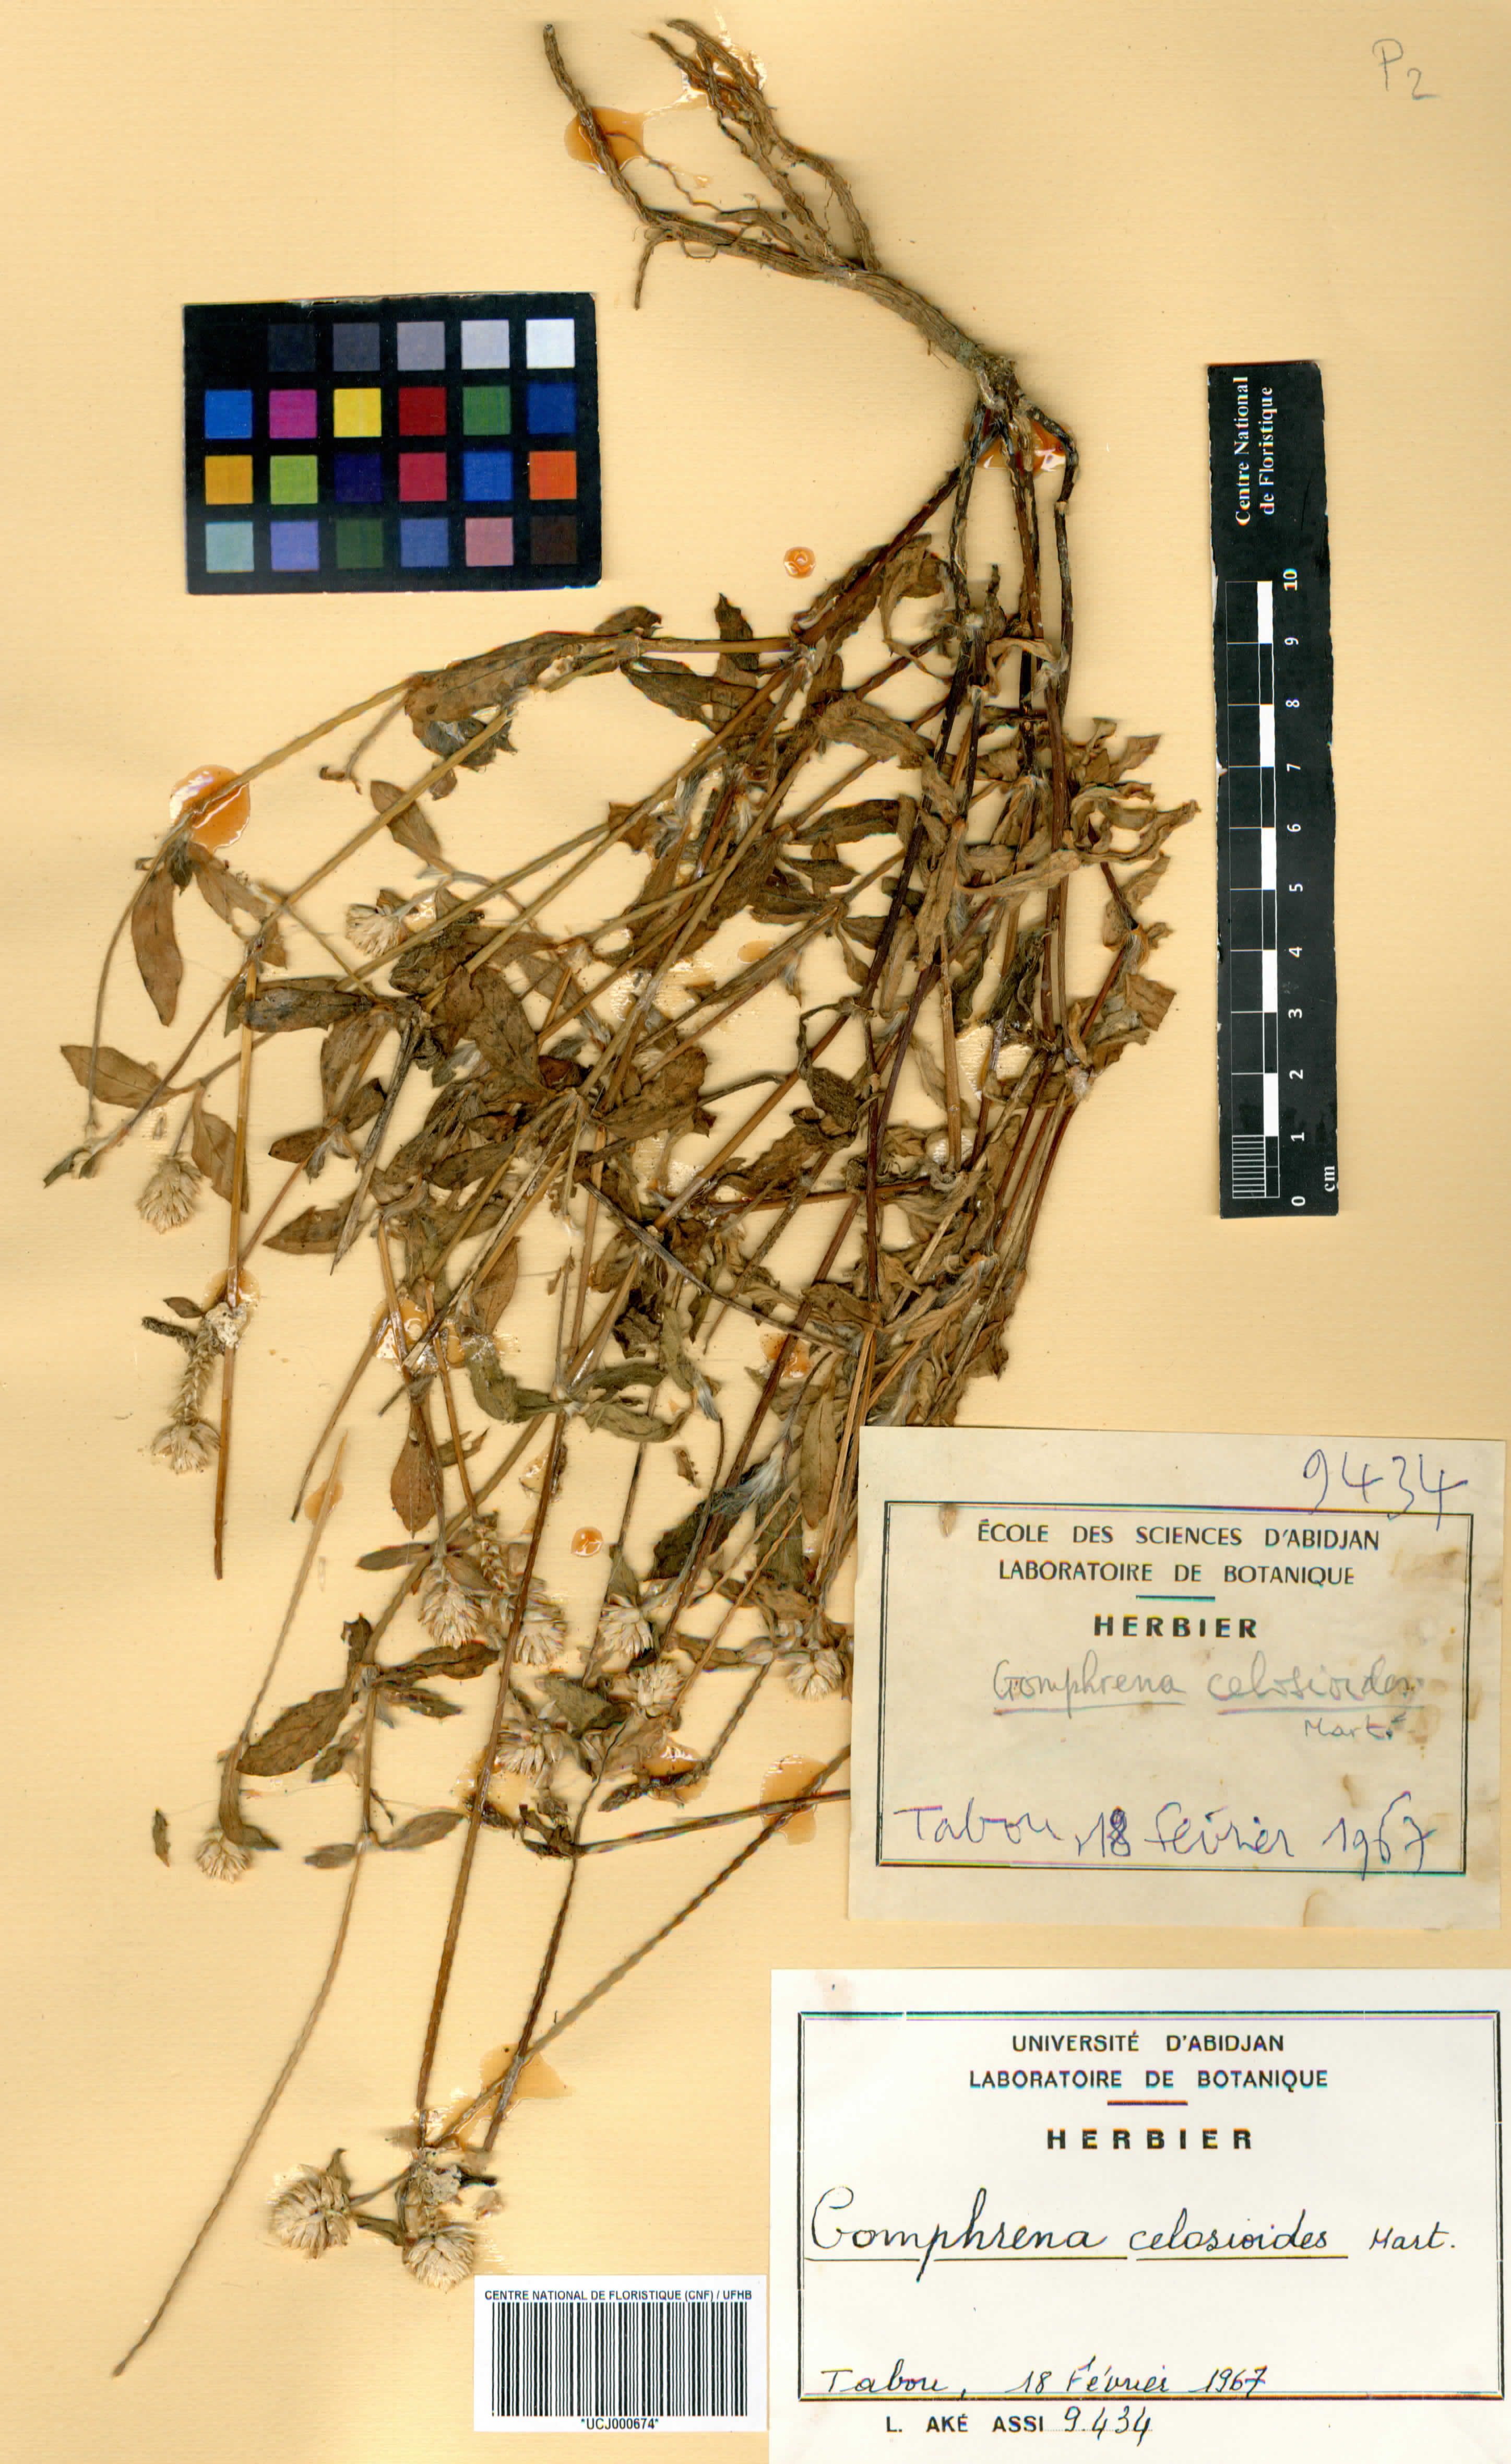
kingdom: Plantae
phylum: Tracheophyta
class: Magnoliopsida
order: Caryophyllales
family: Amaranthaceae
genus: Gomphrena
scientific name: Gomphrena
